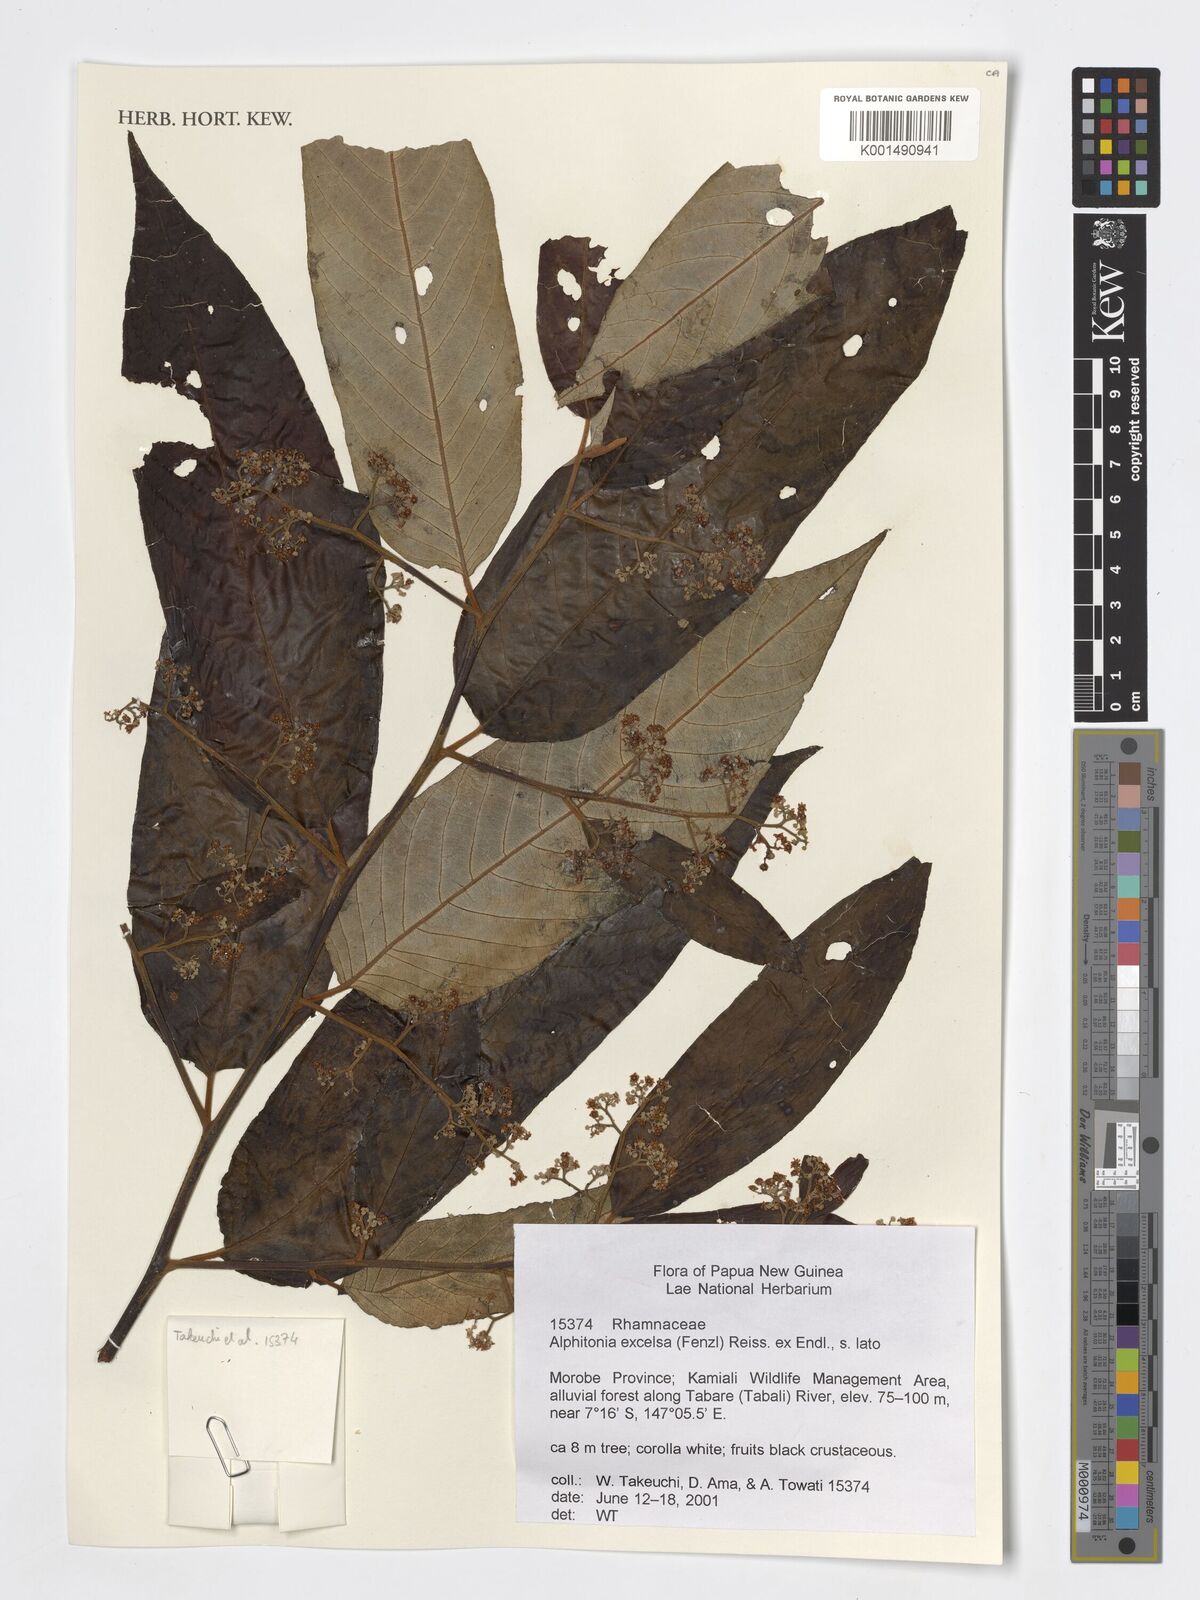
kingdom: Plantae
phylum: Tracheophyta
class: Magnoliopsida
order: Rosales
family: Rhamnaceae
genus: Alphitonia
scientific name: Alphitonia excelsa
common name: Red ash
